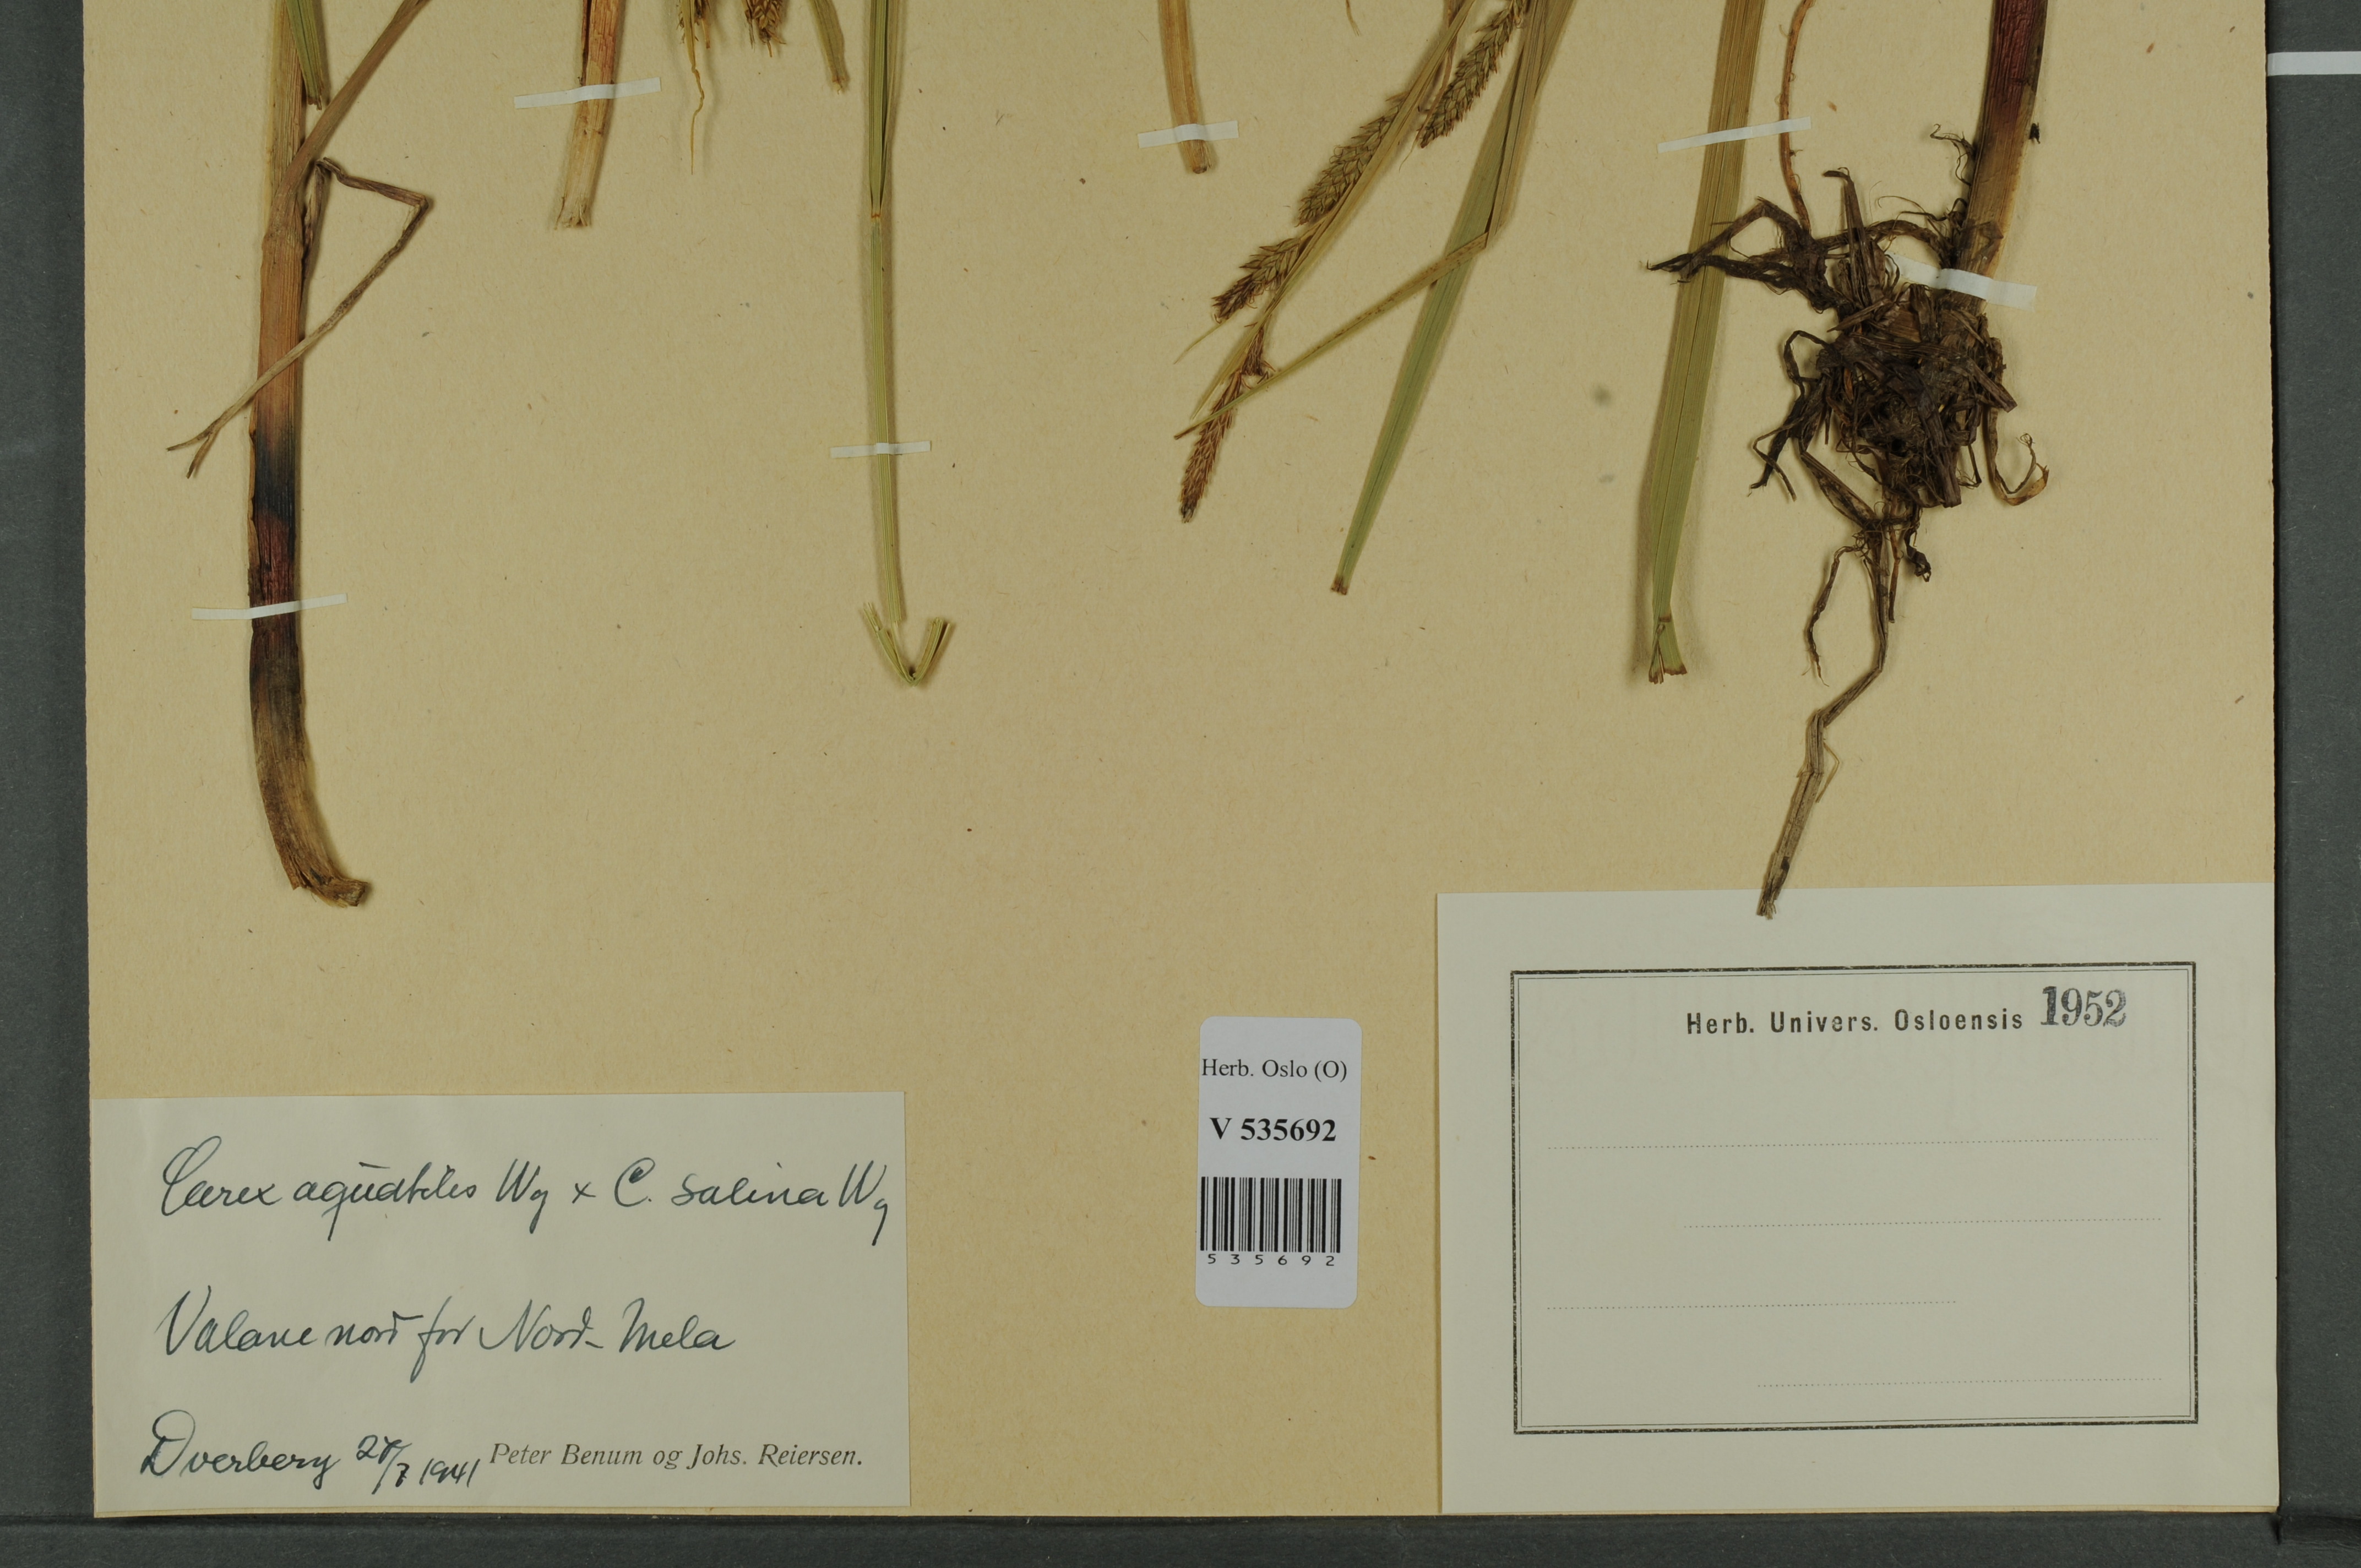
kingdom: Plantae
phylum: Tracheophyta
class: Liliopsida
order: Poales
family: Cyperaceae
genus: Carex
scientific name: Carex
